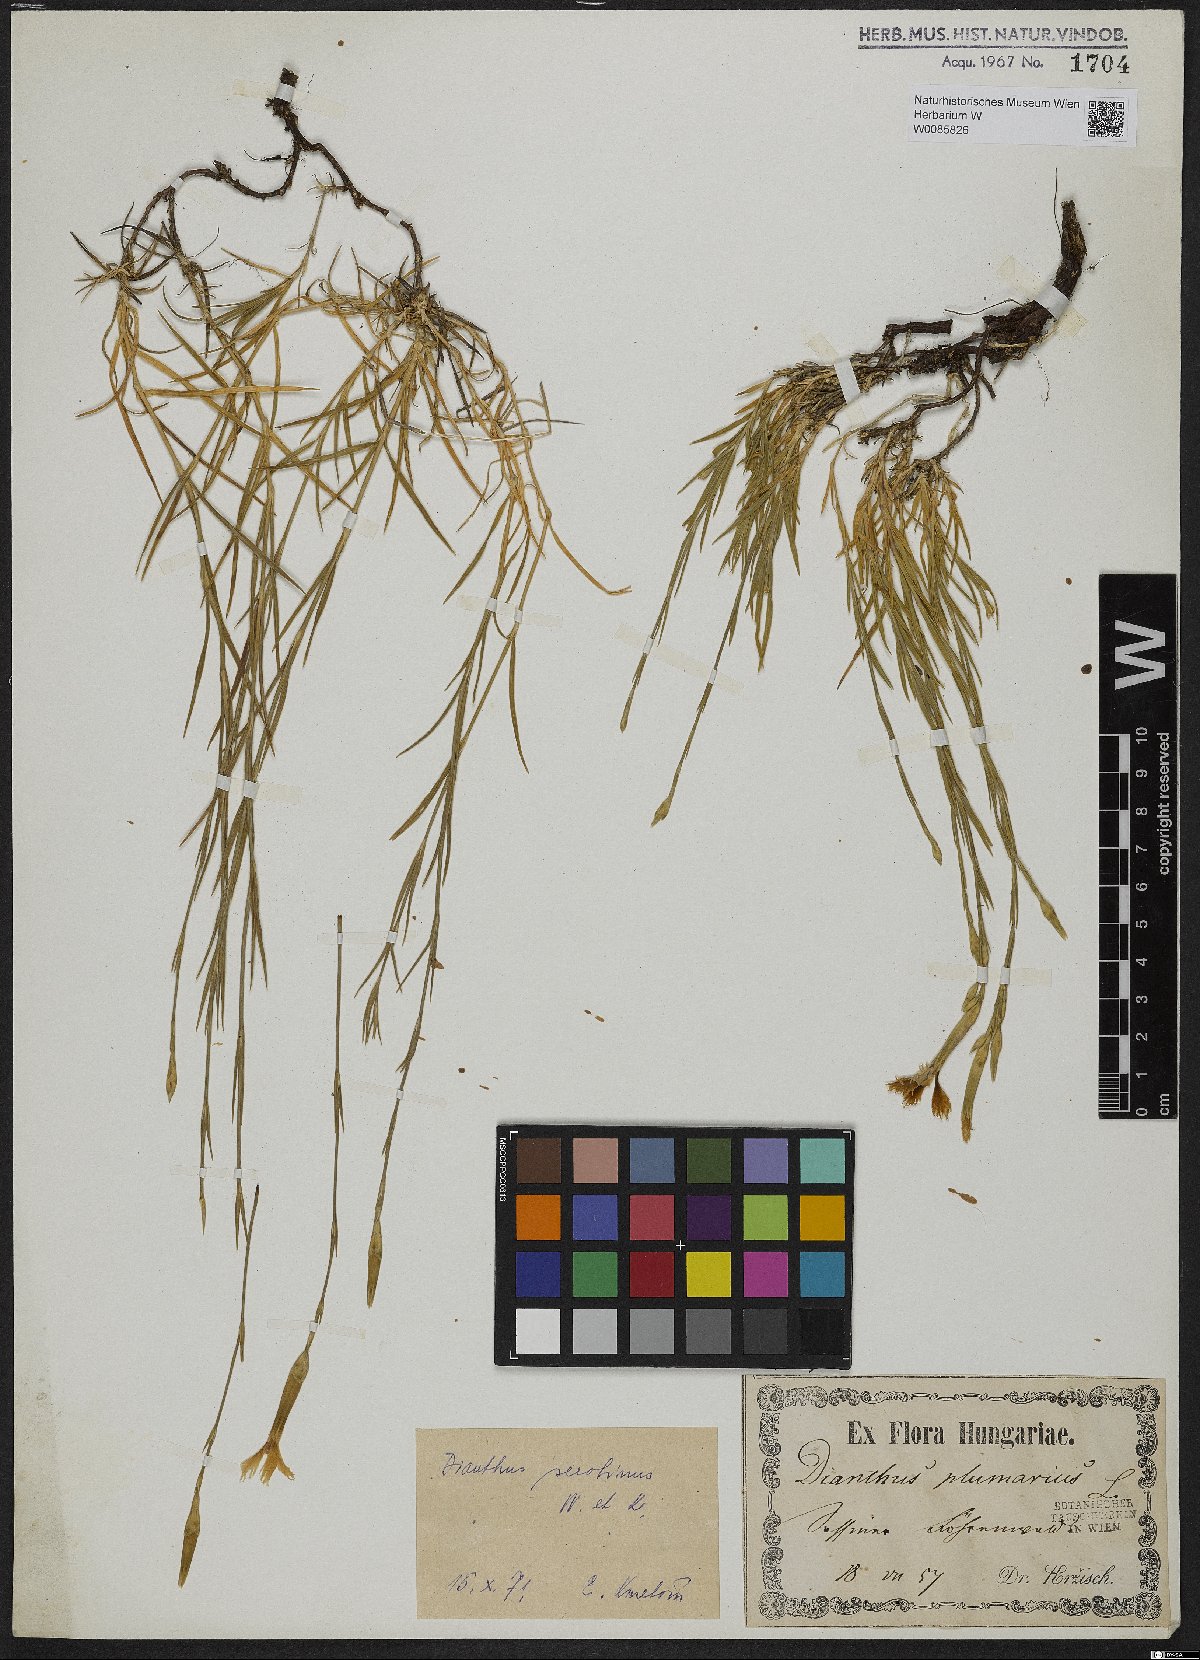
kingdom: Plantae
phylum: Tracheophyta
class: Magnoliopsida
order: Caryophyllales
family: Caryophyllaceae
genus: Dianthus
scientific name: Dianthus serotinus
